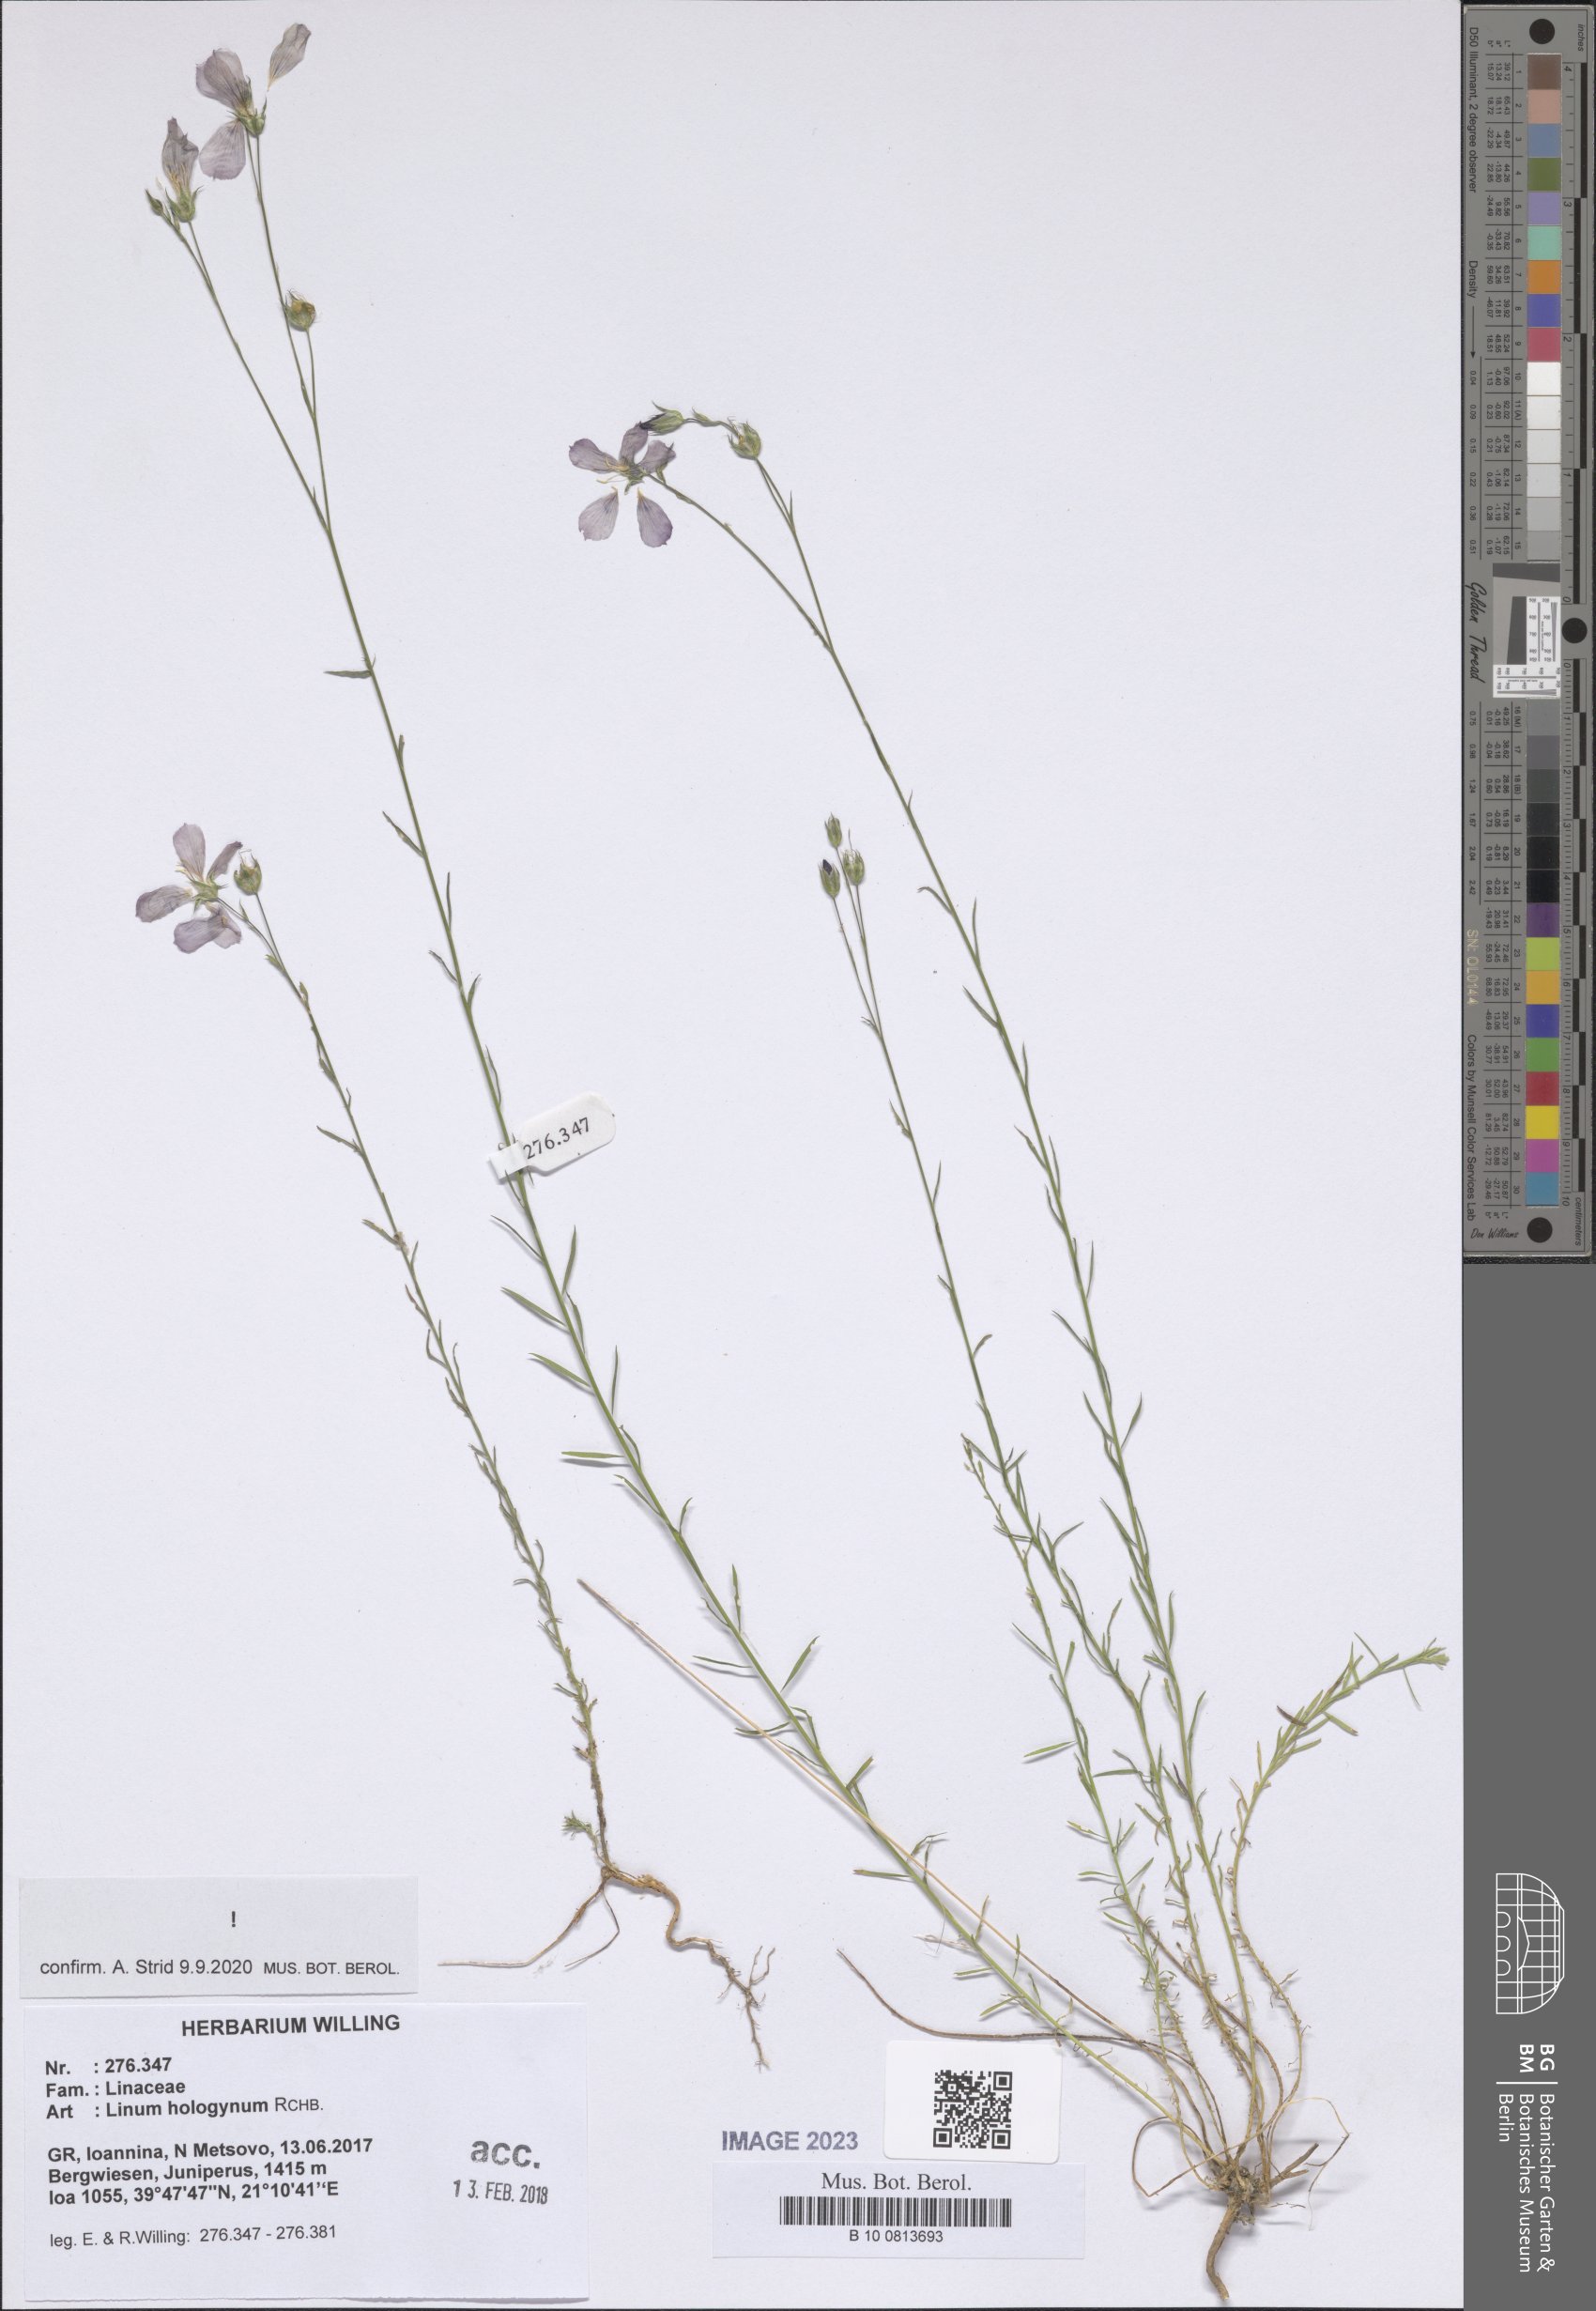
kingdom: Plantae
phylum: Tracheophyta
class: Magnoliopsida
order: Malpighiales
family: Linaceae
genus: Linum
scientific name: Linum hologynum
